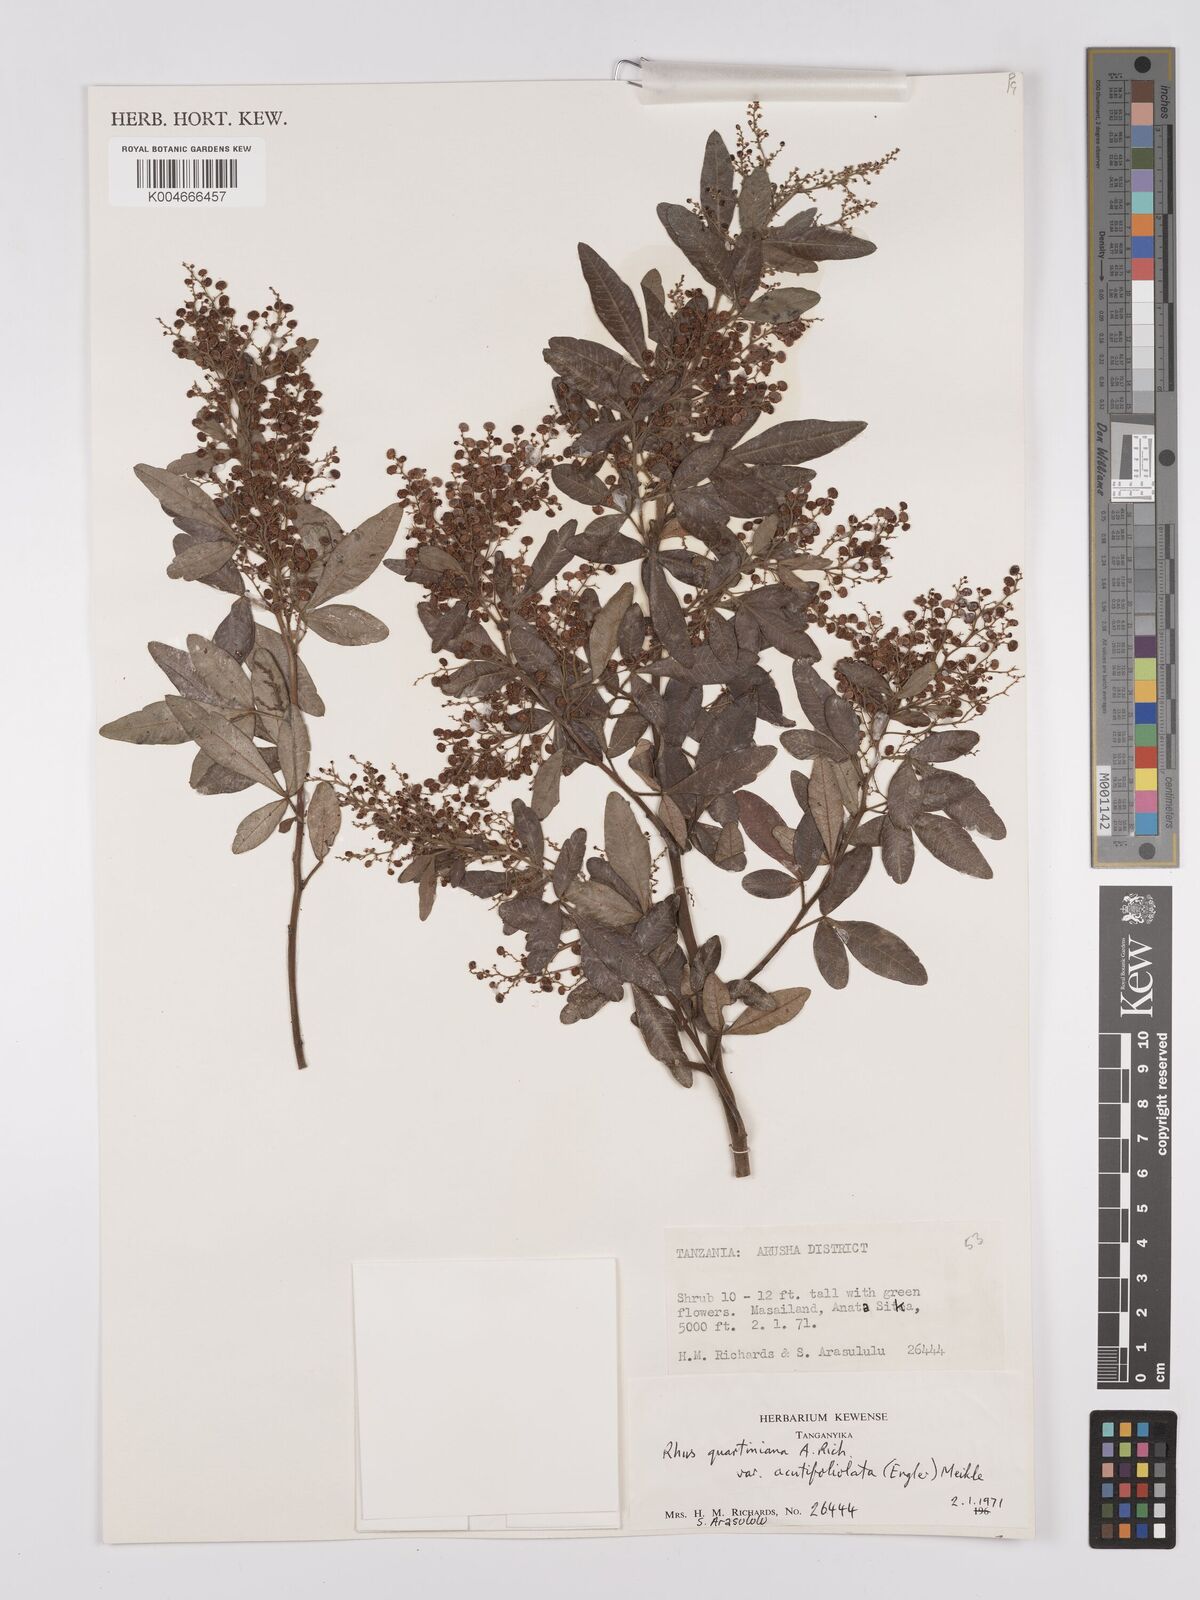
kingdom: Plantae
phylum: Tracheophyta
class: Magnoliopsida
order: Sapindales
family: Anacardiaceae
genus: Searsia
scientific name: Searsia quartiniana
